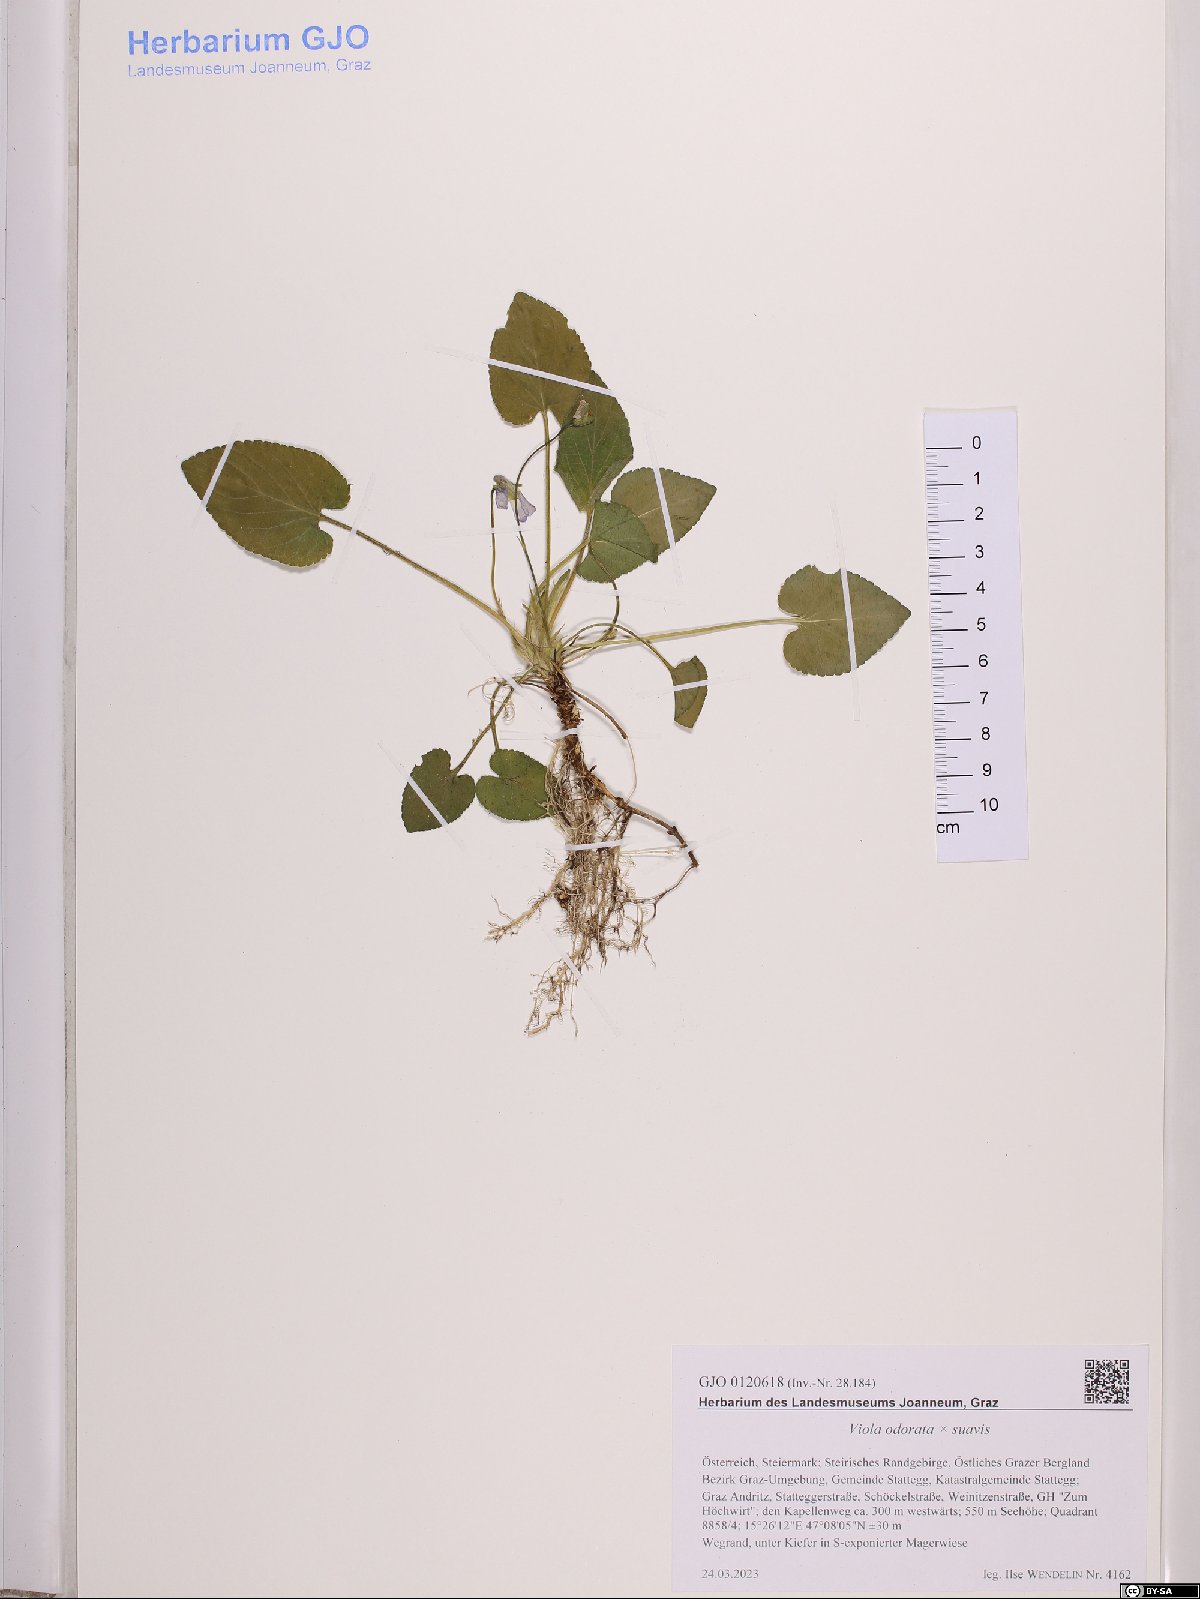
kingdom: Plantae
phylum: Tracheophyta
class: Magnoliopsida
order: Malpighiales
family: Violaceae
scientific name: Violaceae
